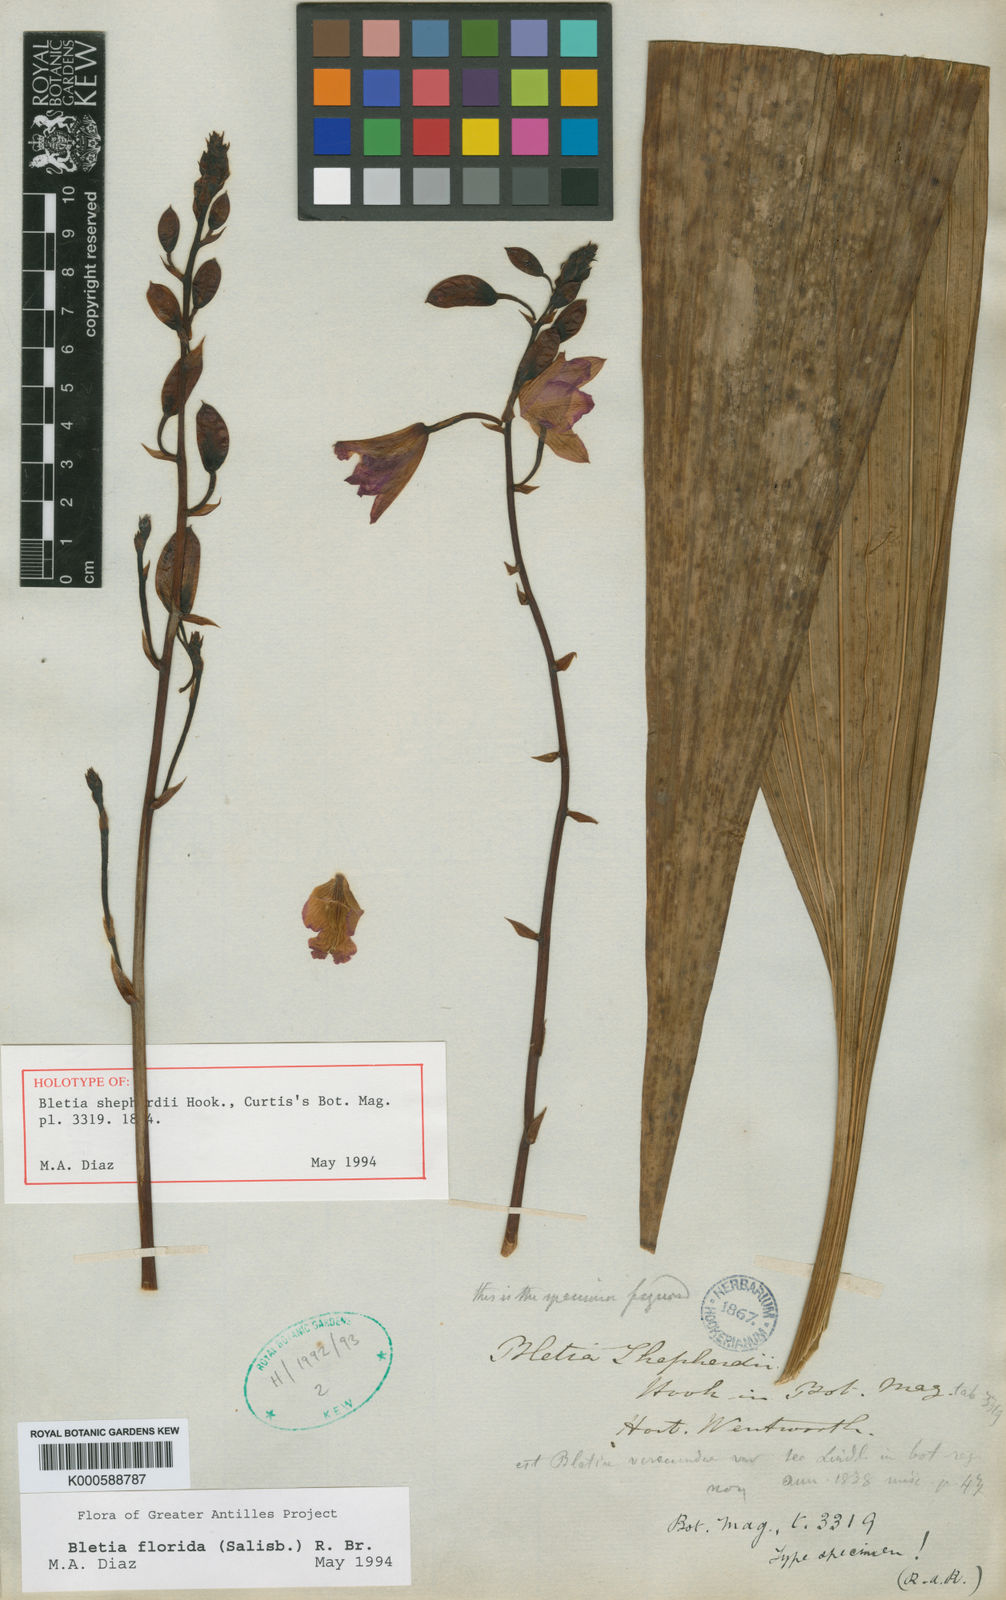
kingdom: Plantae
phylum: Tracheophyta
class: Liliopsida
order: Asparagales
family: Orchidaceae
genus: Bletia
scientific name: Bletia florida
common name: Slender pinepink
